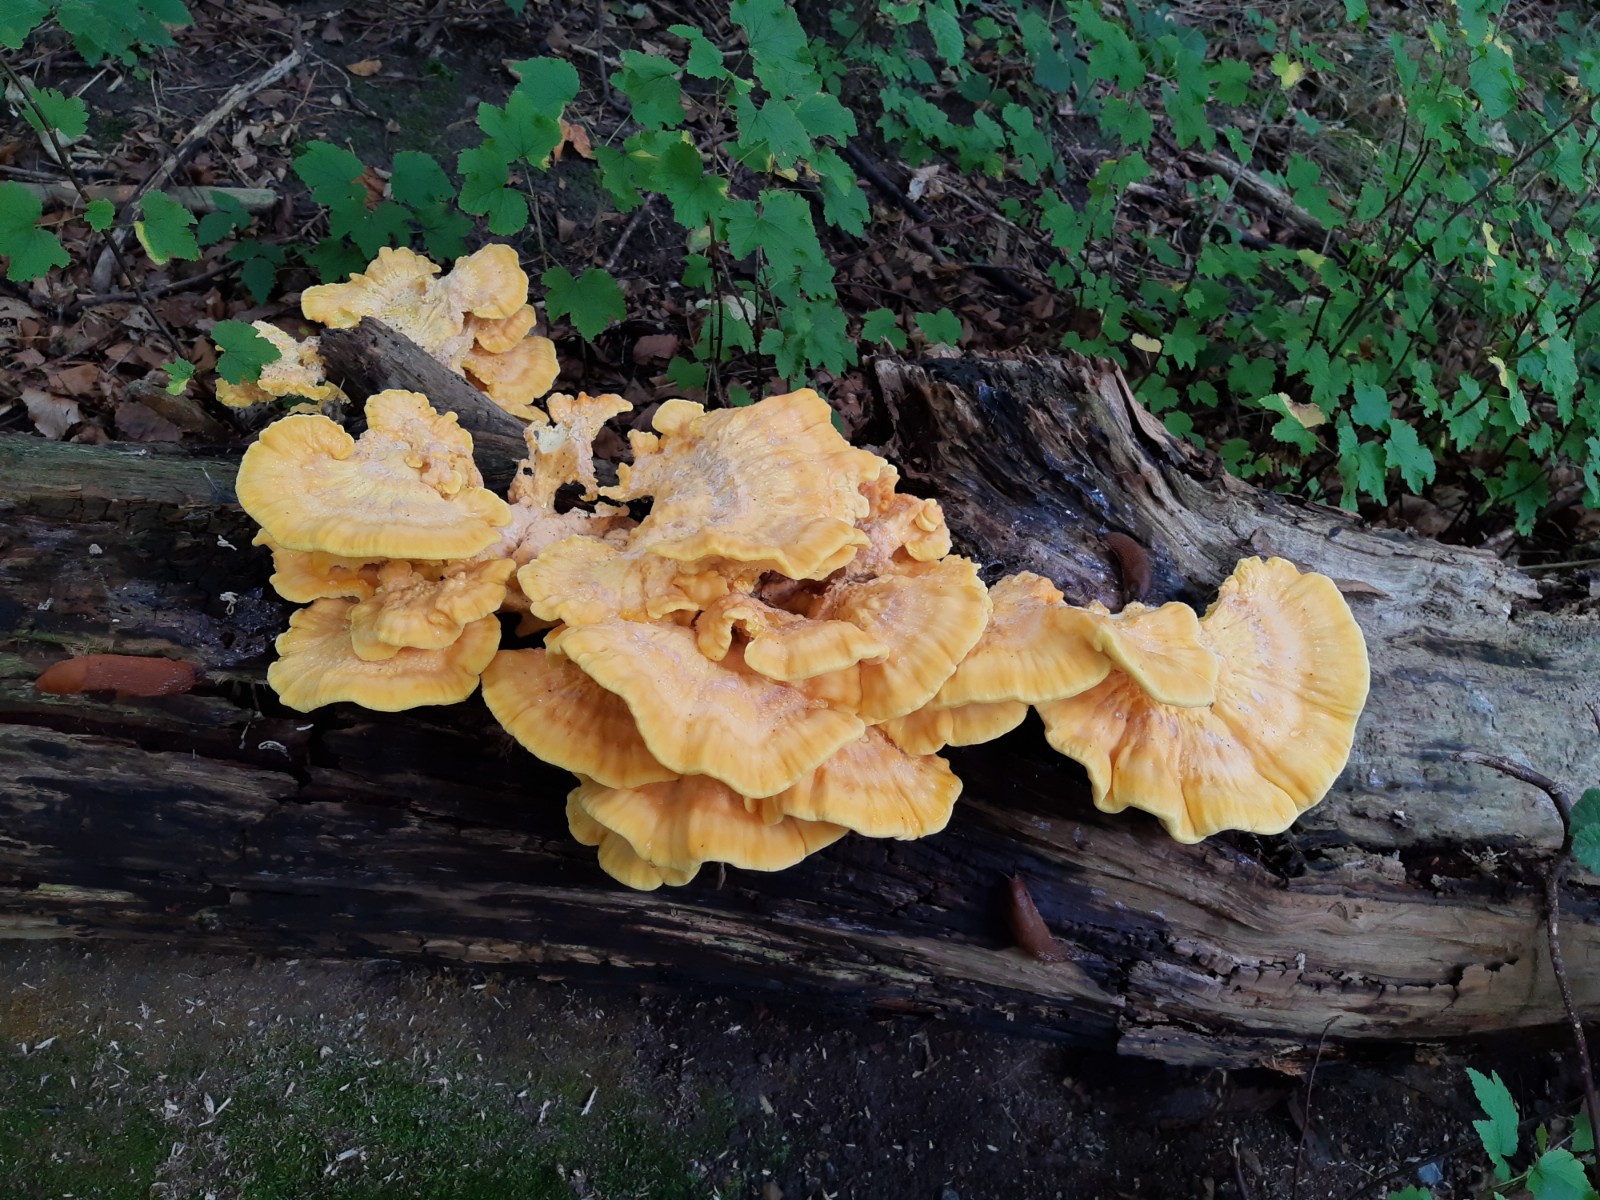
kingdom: Fungi
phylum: Basidiomycota
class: Agaricomycetes
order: Polyporales
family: Laetiporaceae
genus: Laetiporus
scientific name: Laetiporus sulphureus
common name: svovlporesvamp
